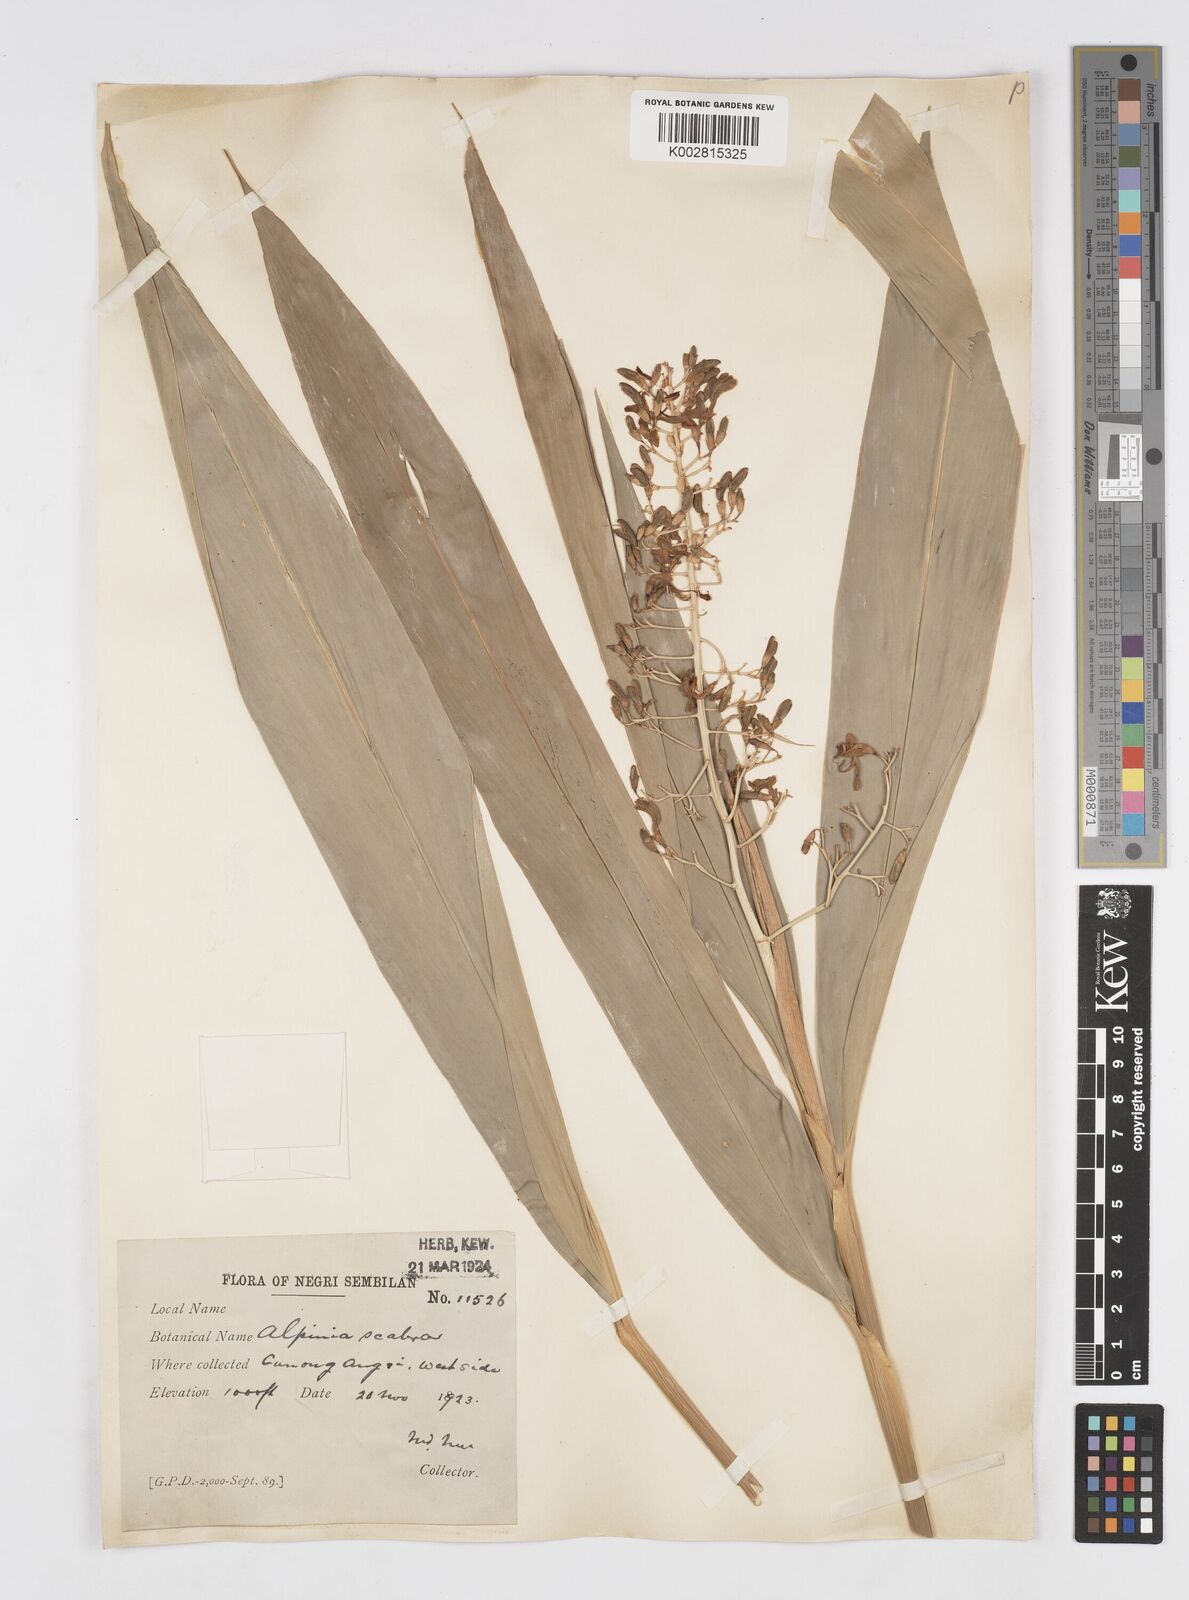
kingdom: Plantae
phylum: Tracheophyta
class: Liliopsida
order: Zingiberales
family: Zingiberaceae
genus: Alpinia
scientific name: Alpinia scabra
